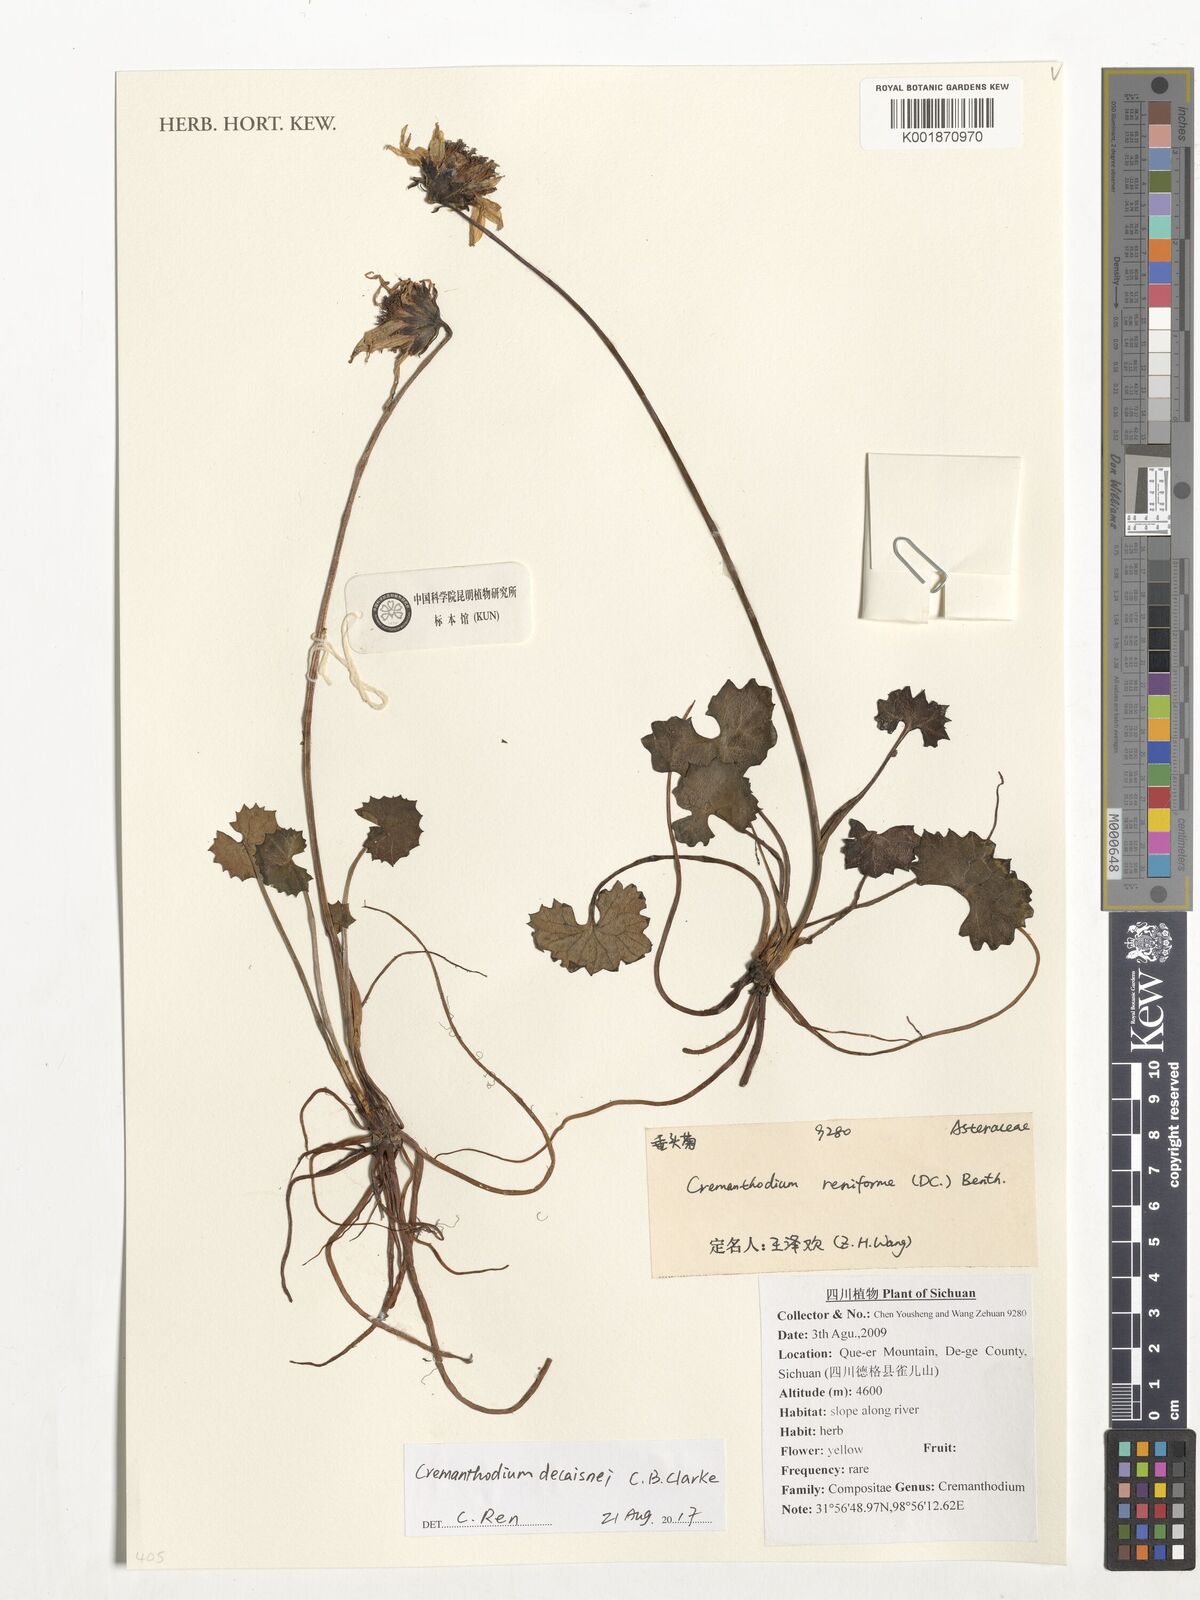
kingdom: Plantae
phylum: Tracheophyta
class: Magnoliopsida
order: Asterales
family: Asteraceae
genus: Cremanthodium
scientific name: Cremanthodium decaisnei
